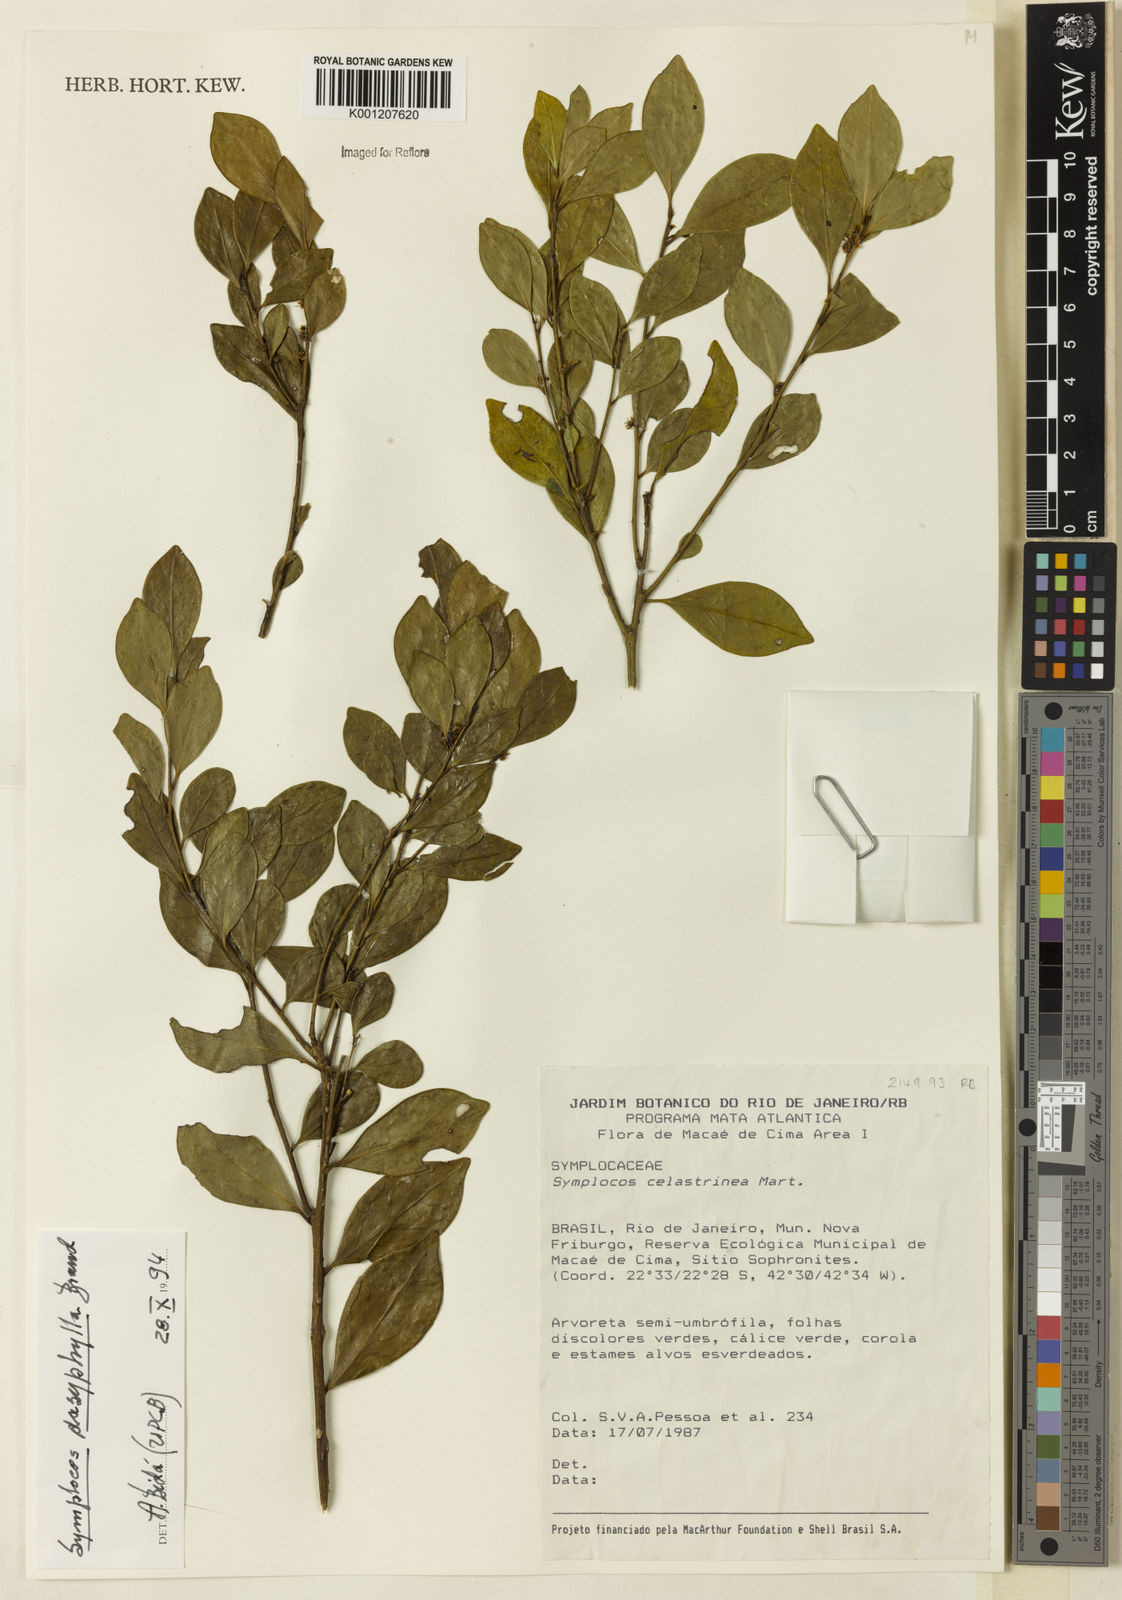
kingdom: Plantae
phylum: Tracheophyta
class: Magnoliopsida
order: Ericales
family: Symplocaceae
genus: Symplocos
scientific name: Symplocos dasyphylla
